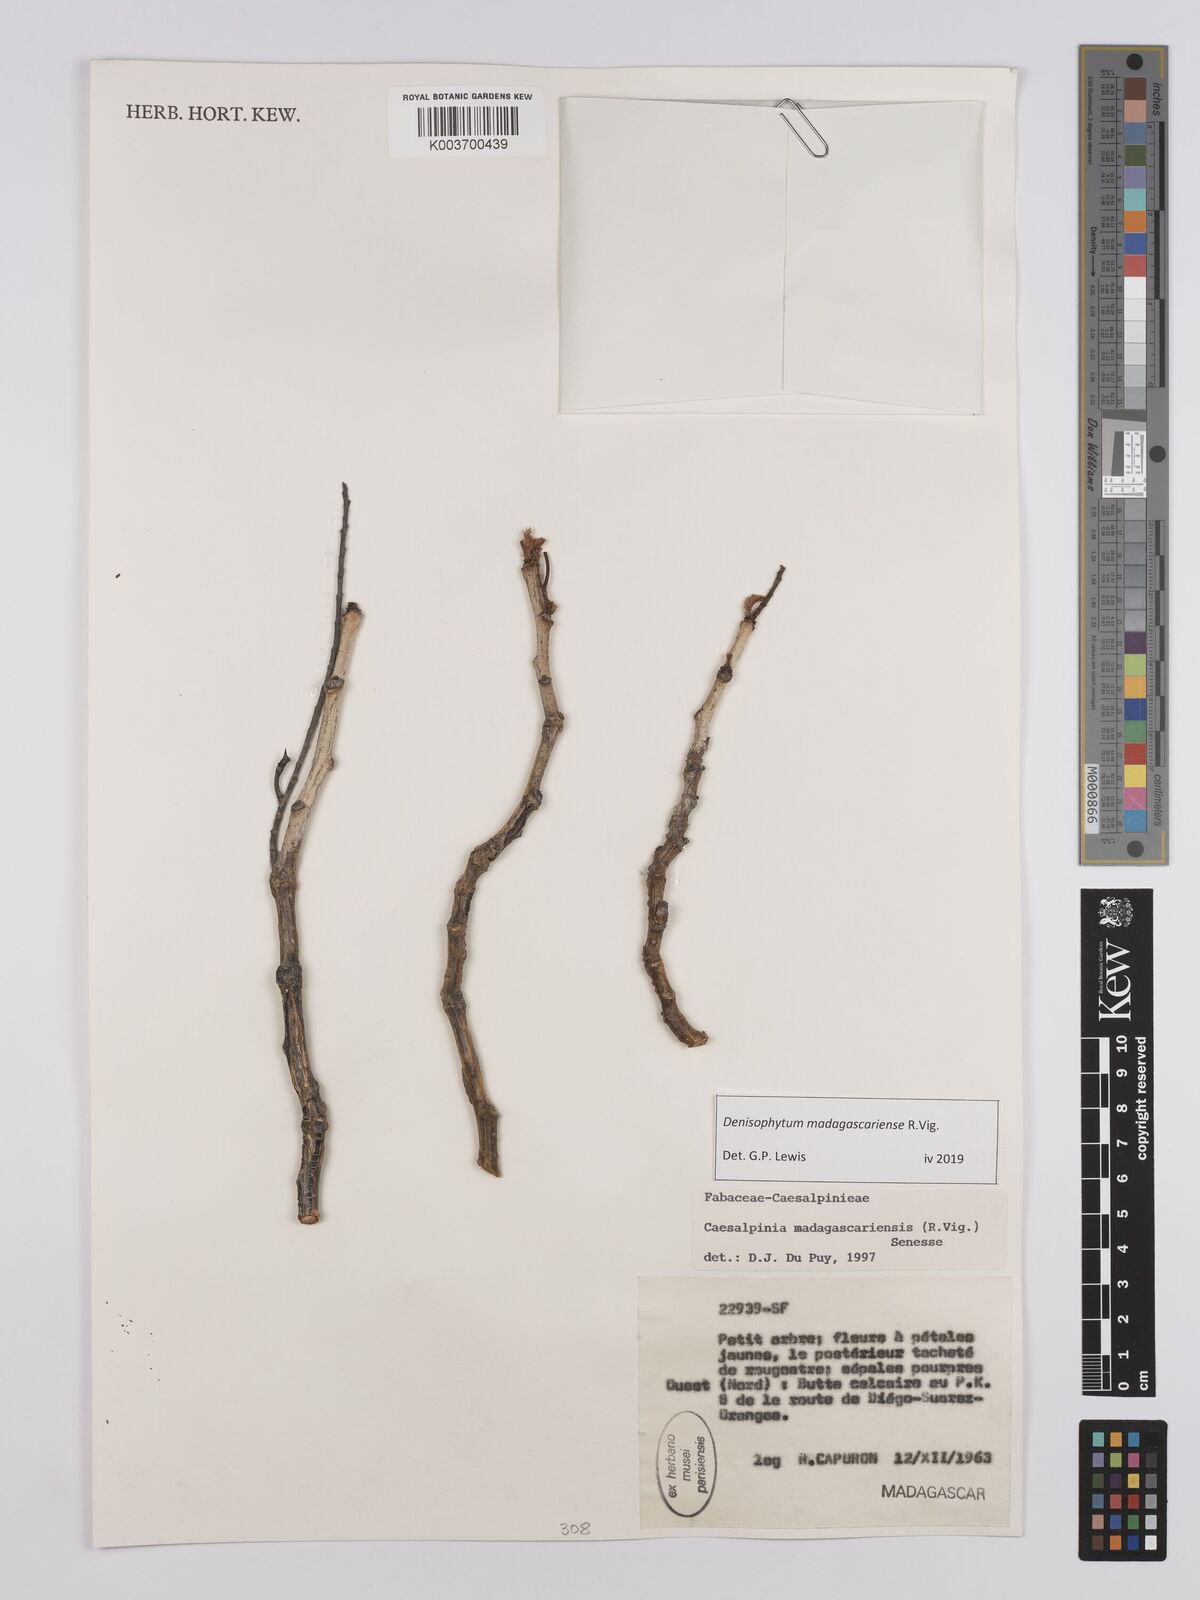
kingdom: Plantae
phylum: Tracheophyta
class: Magnoliopsida
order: Fabales
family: Fabaceae
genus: Denisophytum
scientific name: Denisophytum madagascariense
